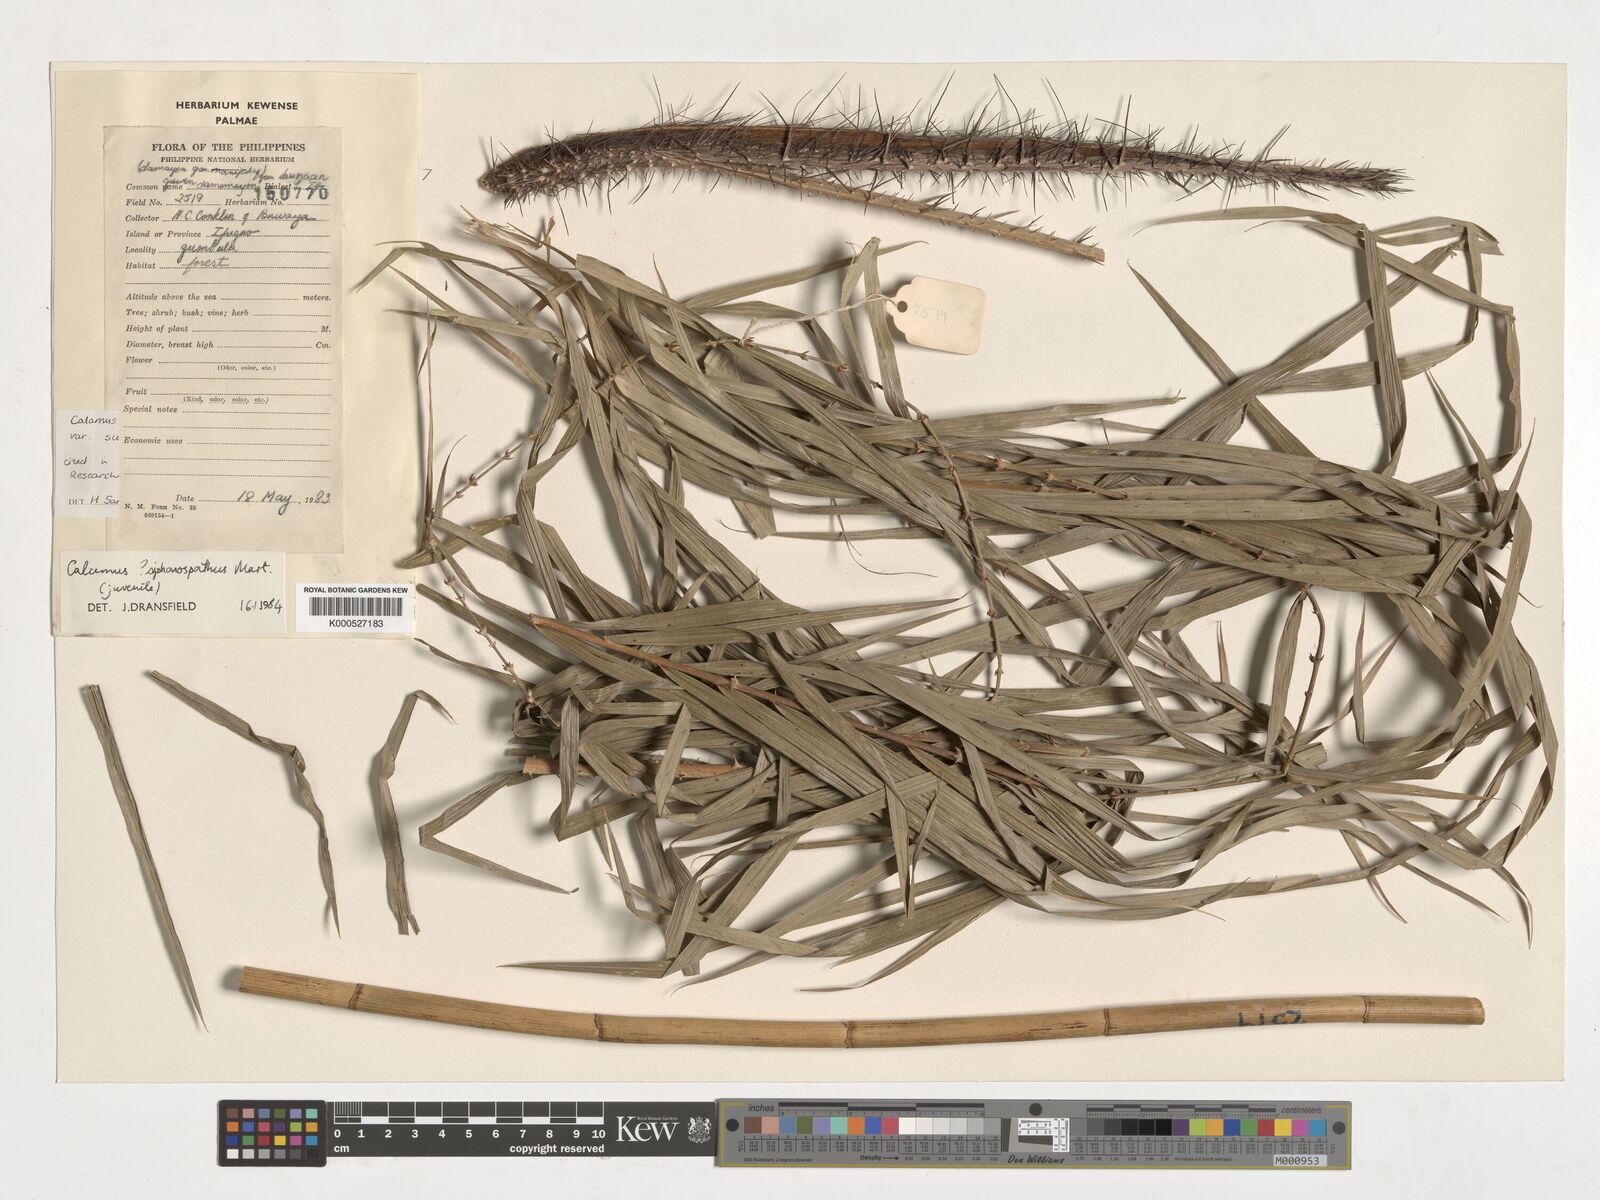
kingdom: Plantae
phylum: Tracheophyta
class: Liliopsida
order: Arecales
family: Arecaceae
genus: Calamus
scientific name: Calamus siphonospathus
